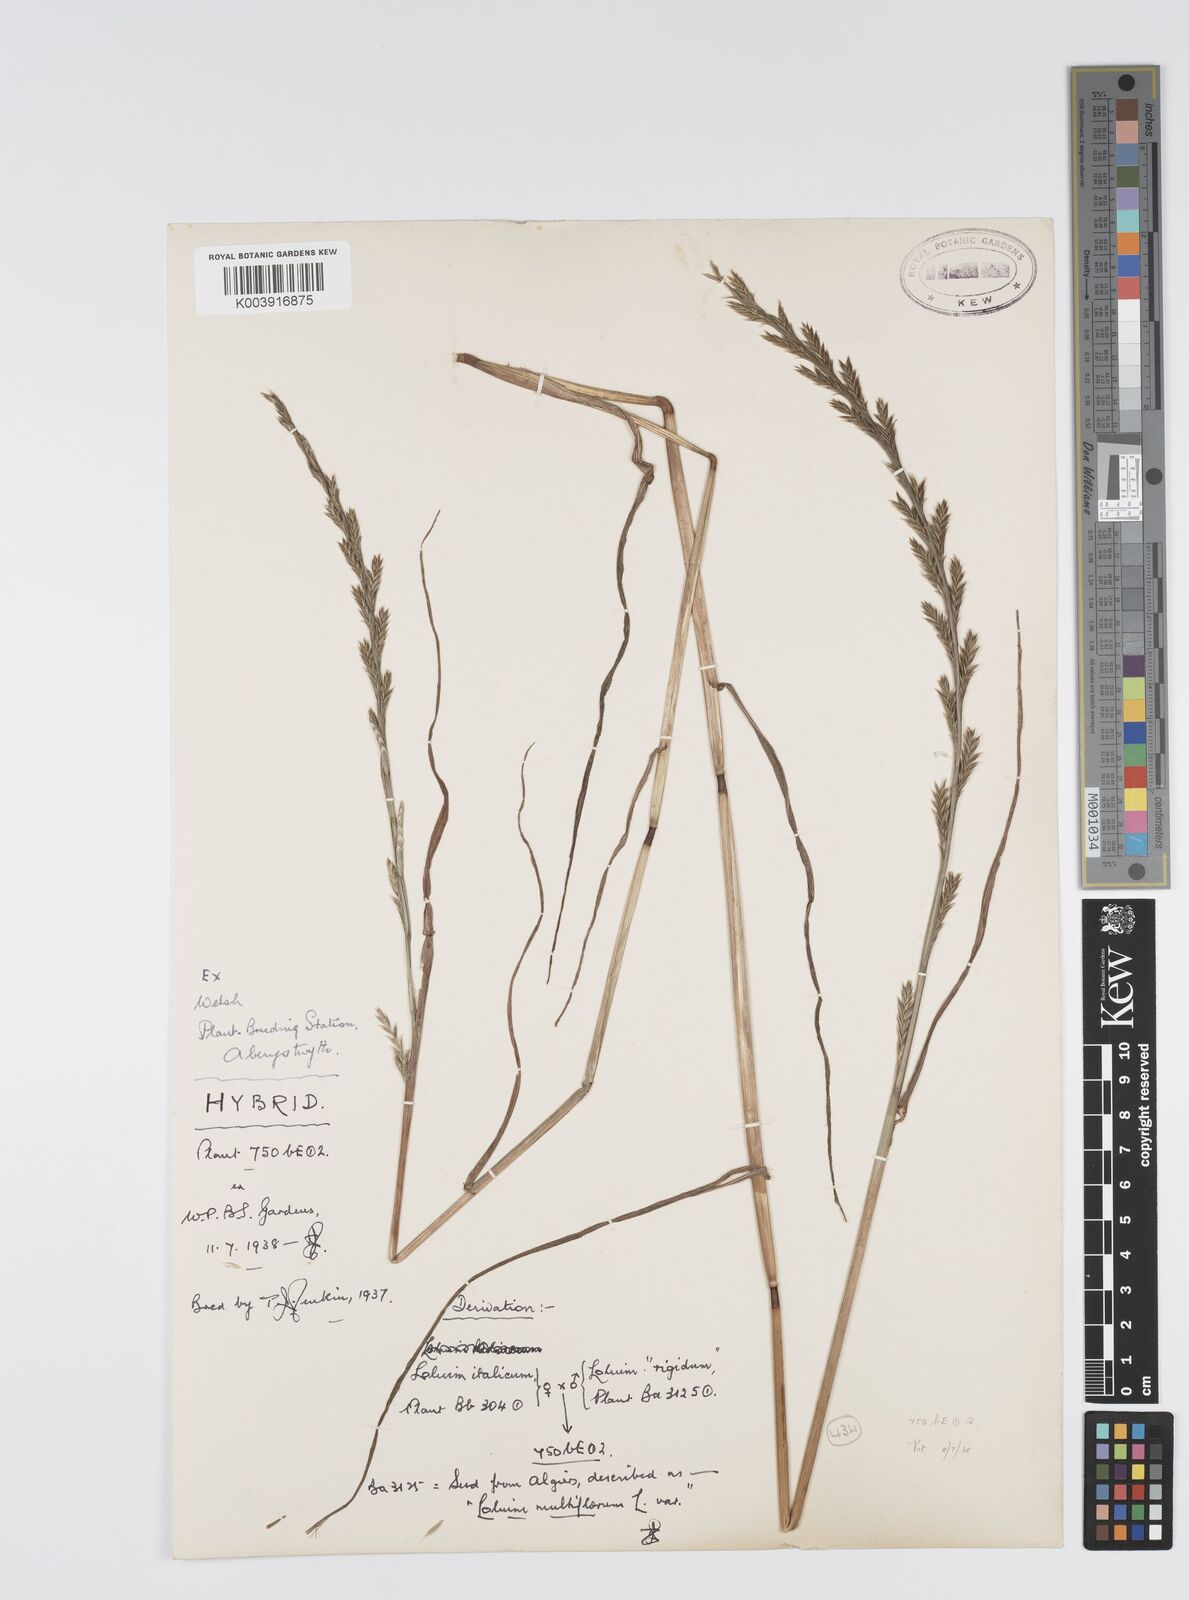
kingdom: Plantae
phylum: Tracheophyta
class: Liliopsida
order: Poales
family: Poaceae
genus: Lolium
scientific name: Lolium multiflorum
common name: Annual ryegrass
